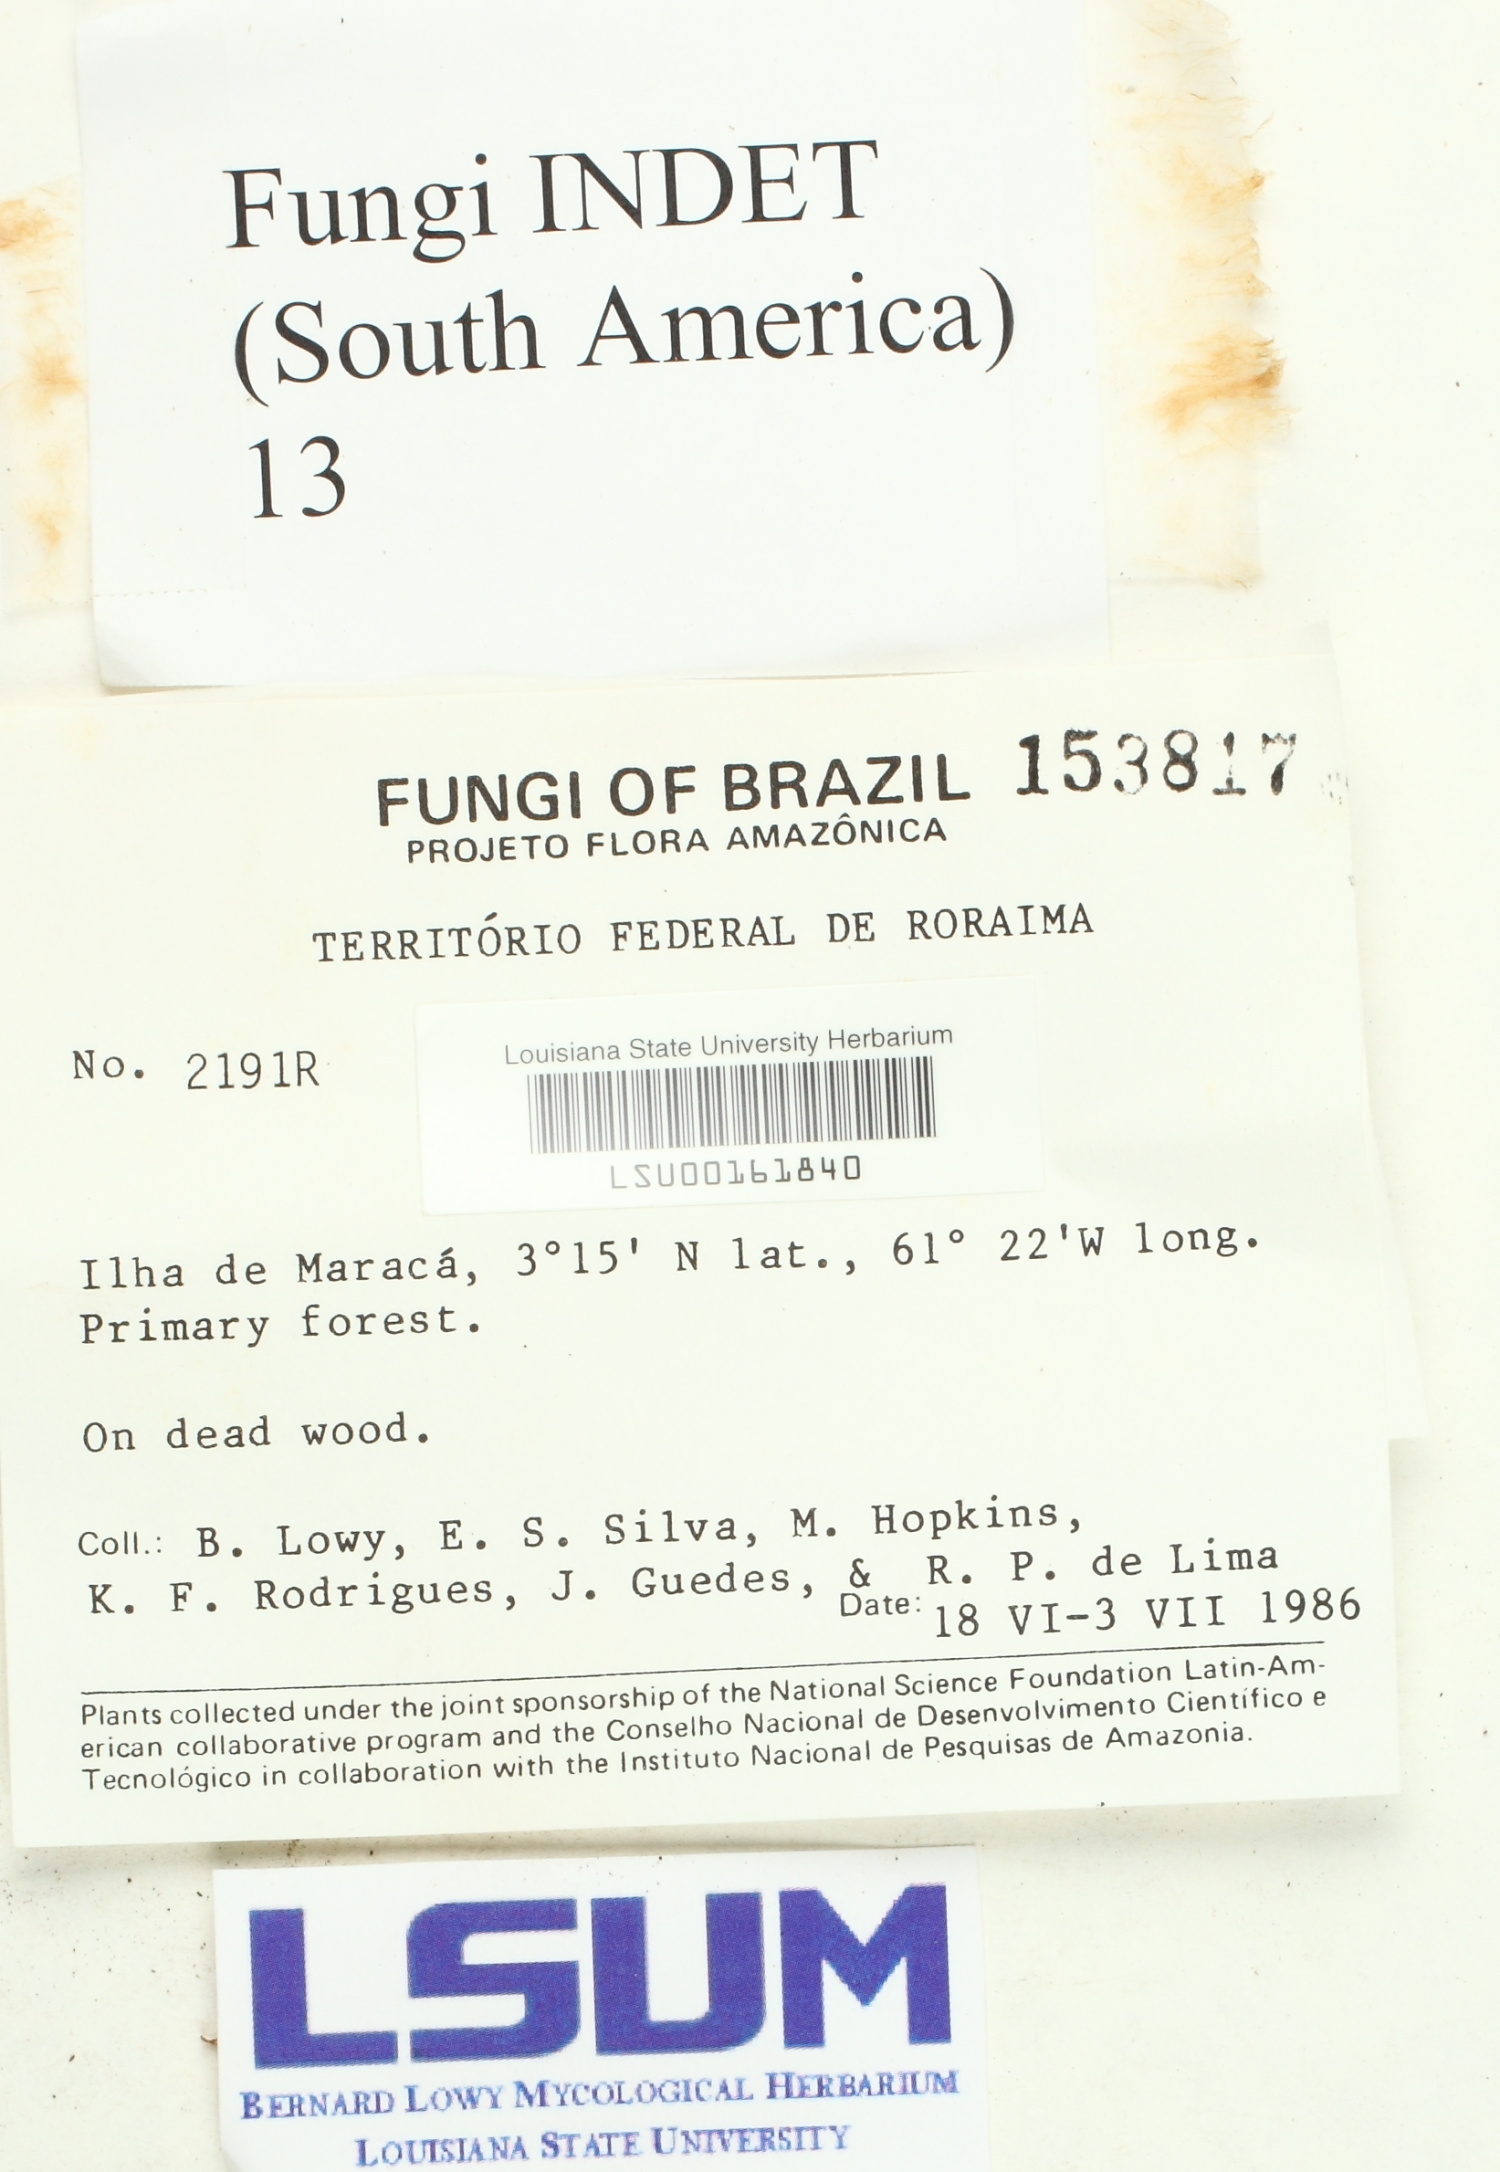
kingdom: Fungi
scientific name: Fungi
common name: Fungi
